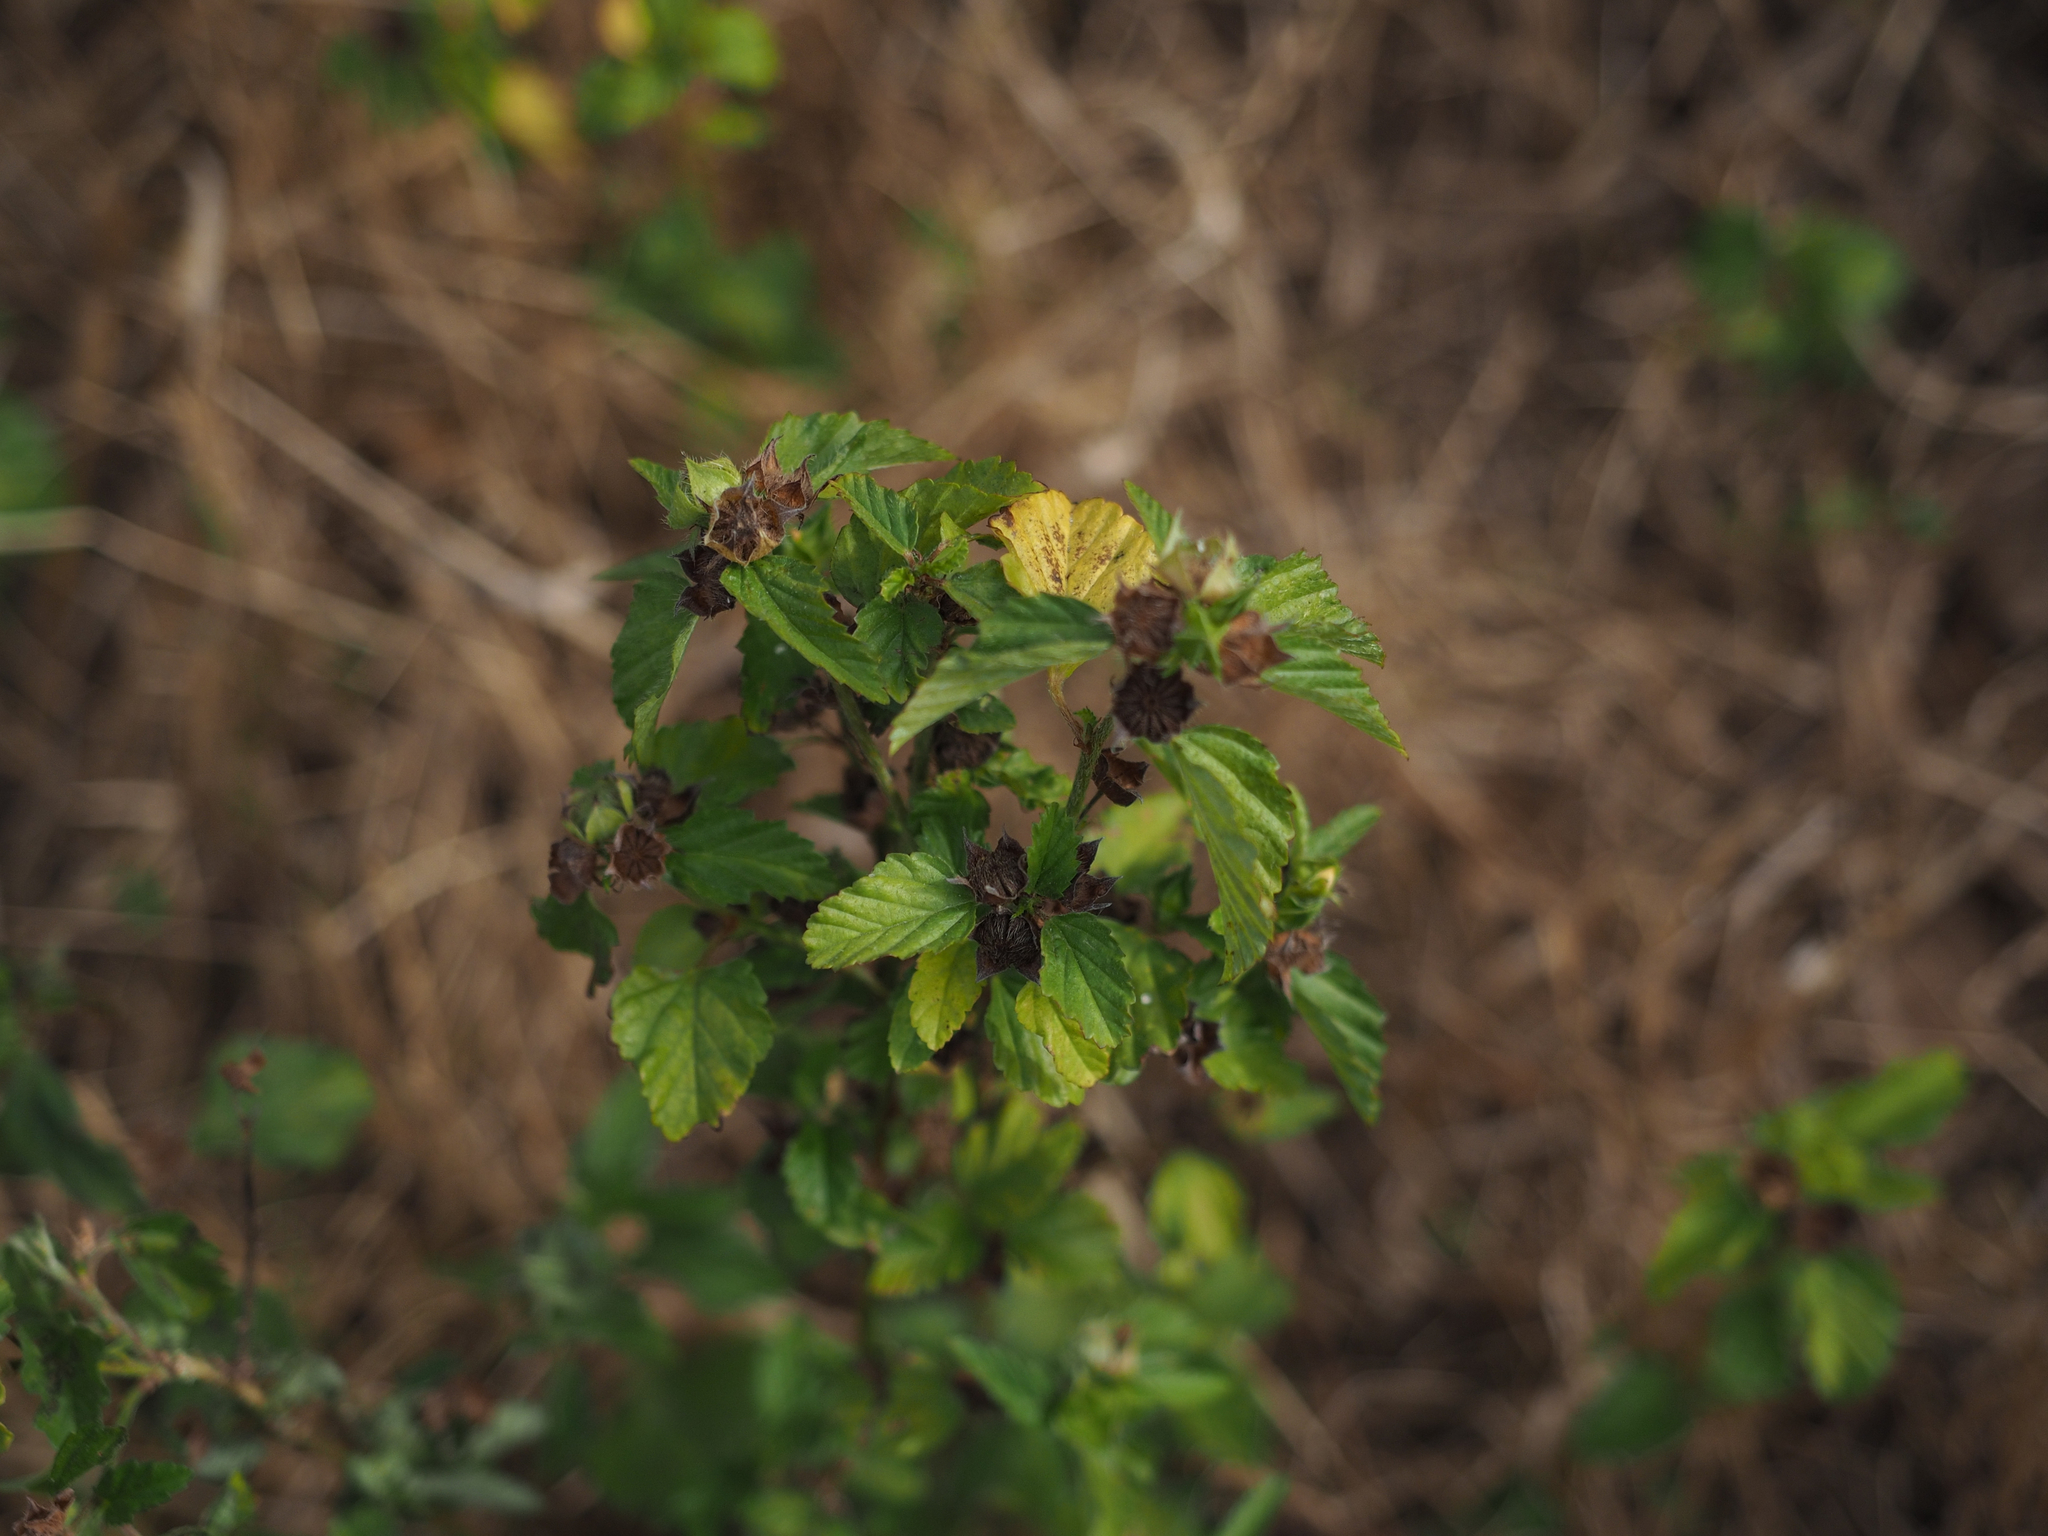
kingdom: Plantae
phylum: Tracheophyta
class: Magnoliopsida
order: Malvales
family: Malvaceae
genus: Malvastrum
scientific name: Malvastrum coromandelianum
